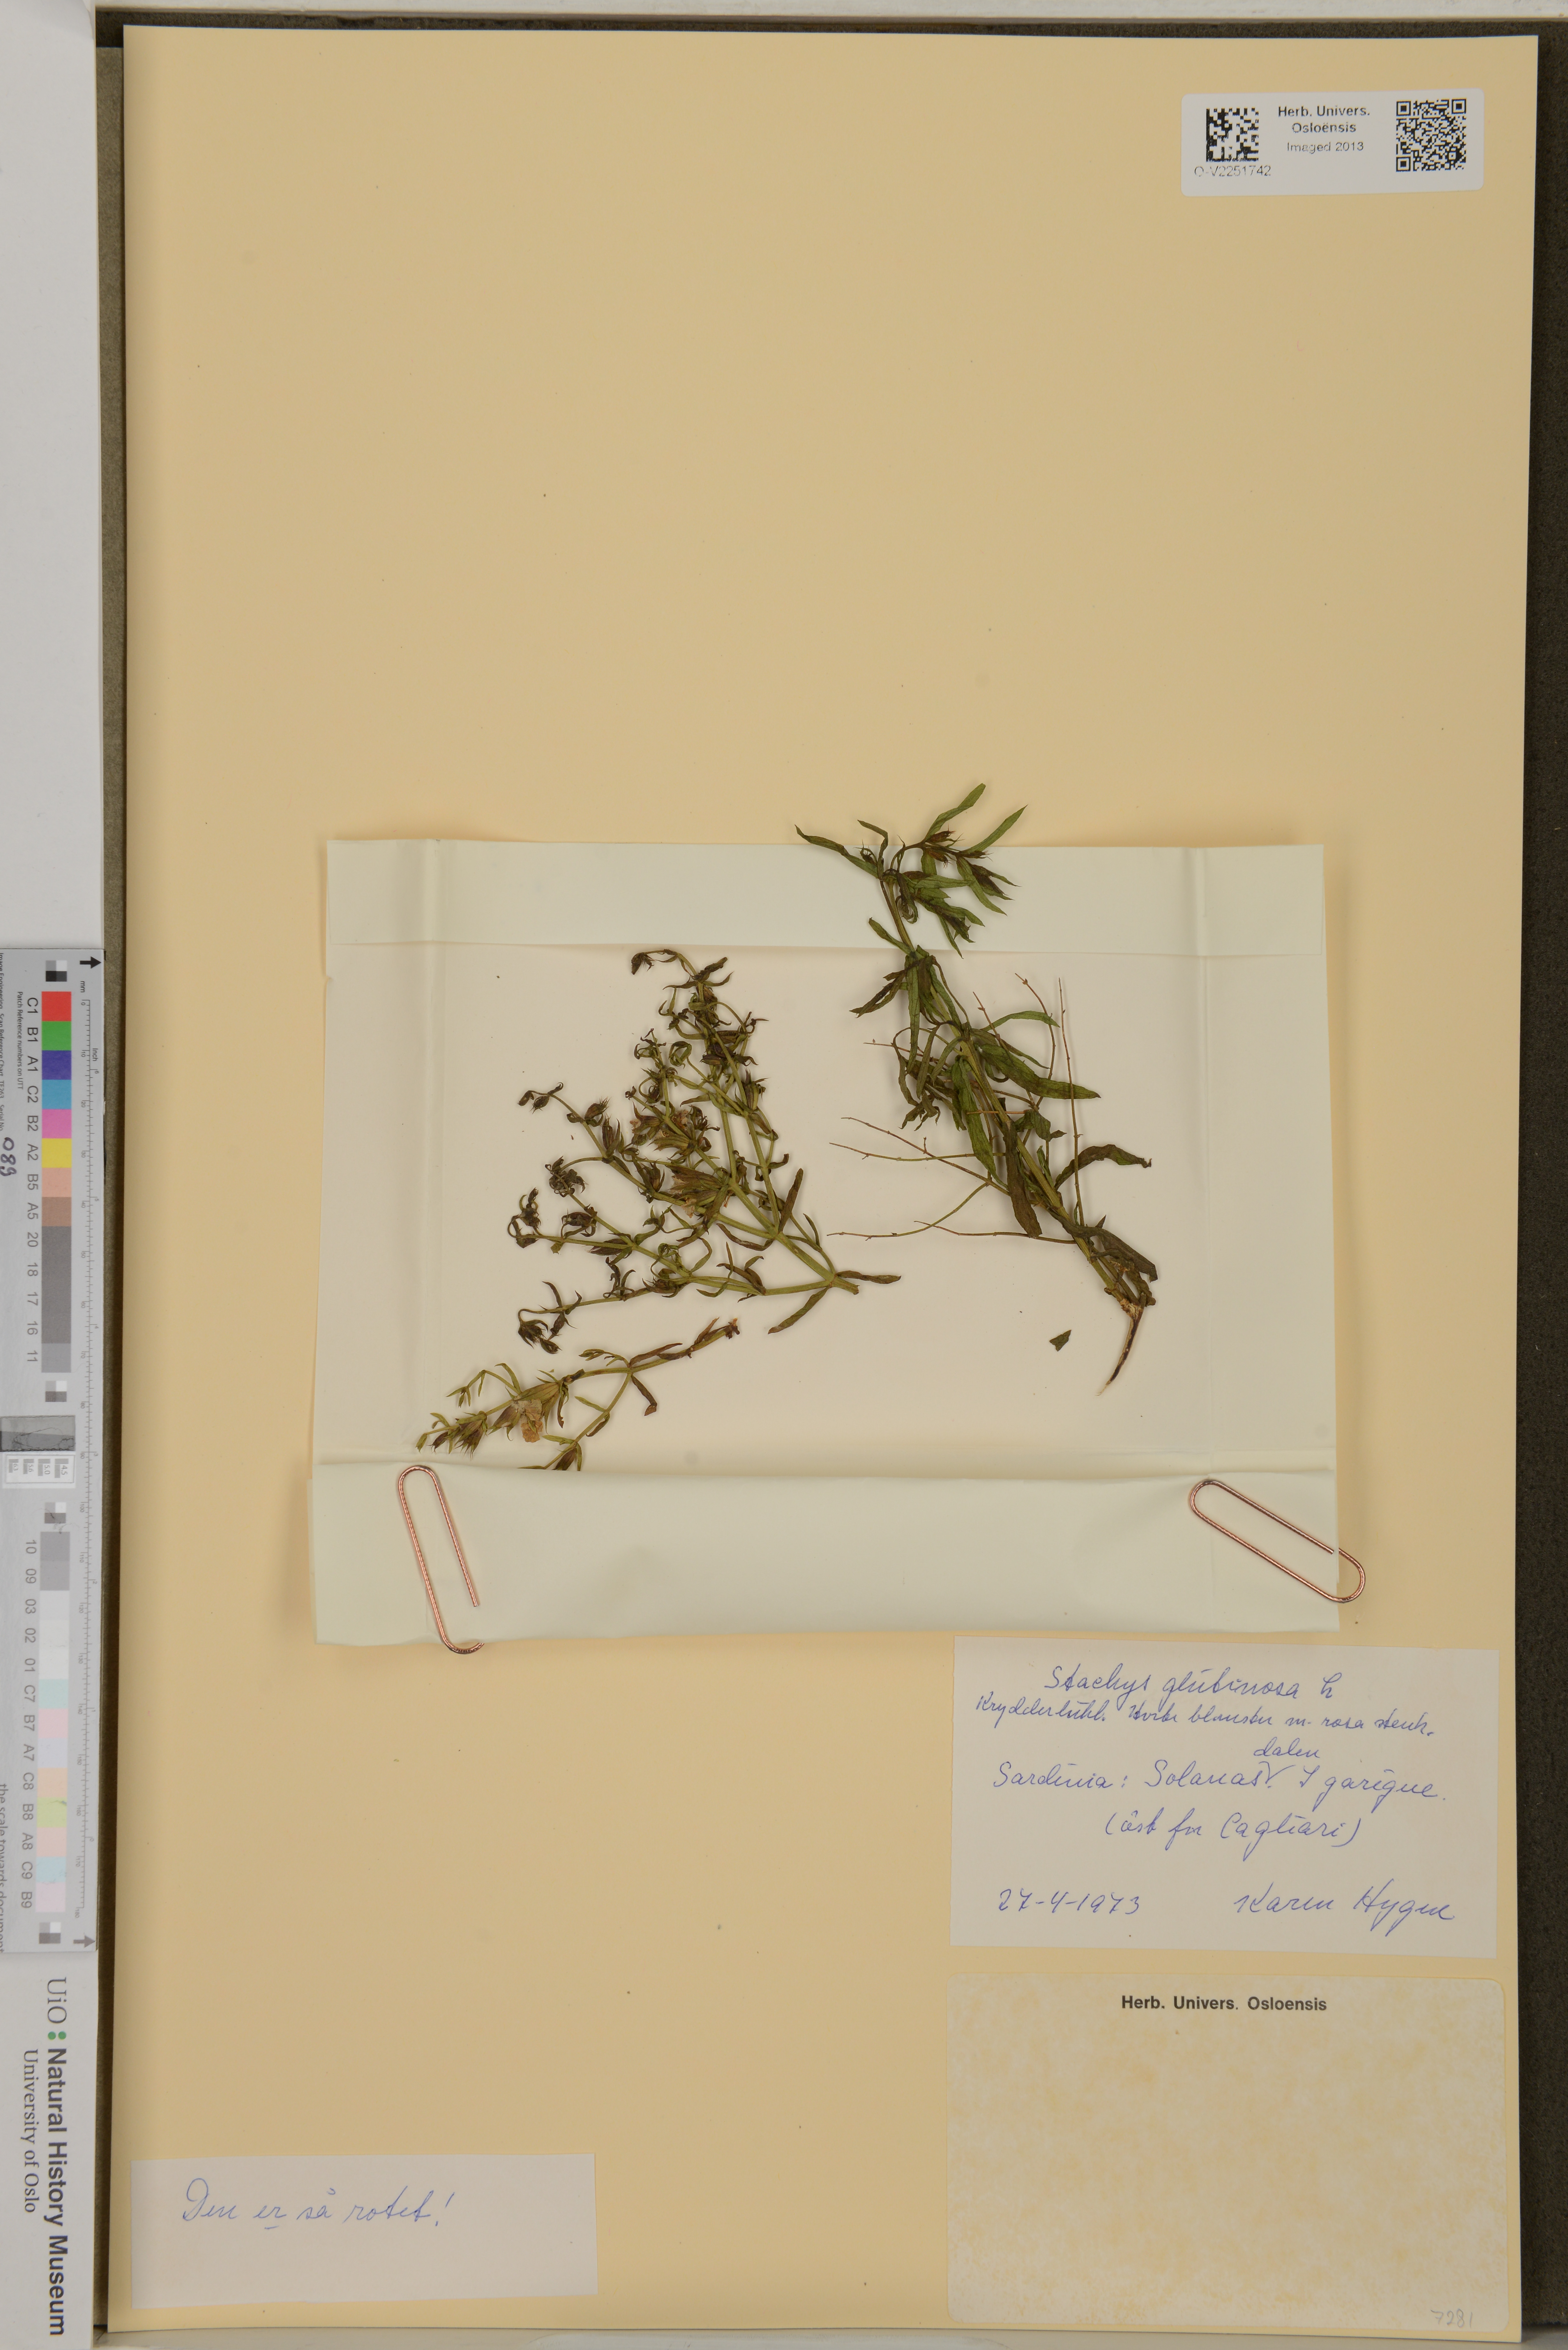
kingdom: Plantae
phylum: Tracheophyta
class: Magnoliopsida
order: Lamiales
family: Lamiaceae
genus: Stachys
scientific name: Stachys glutinosa
